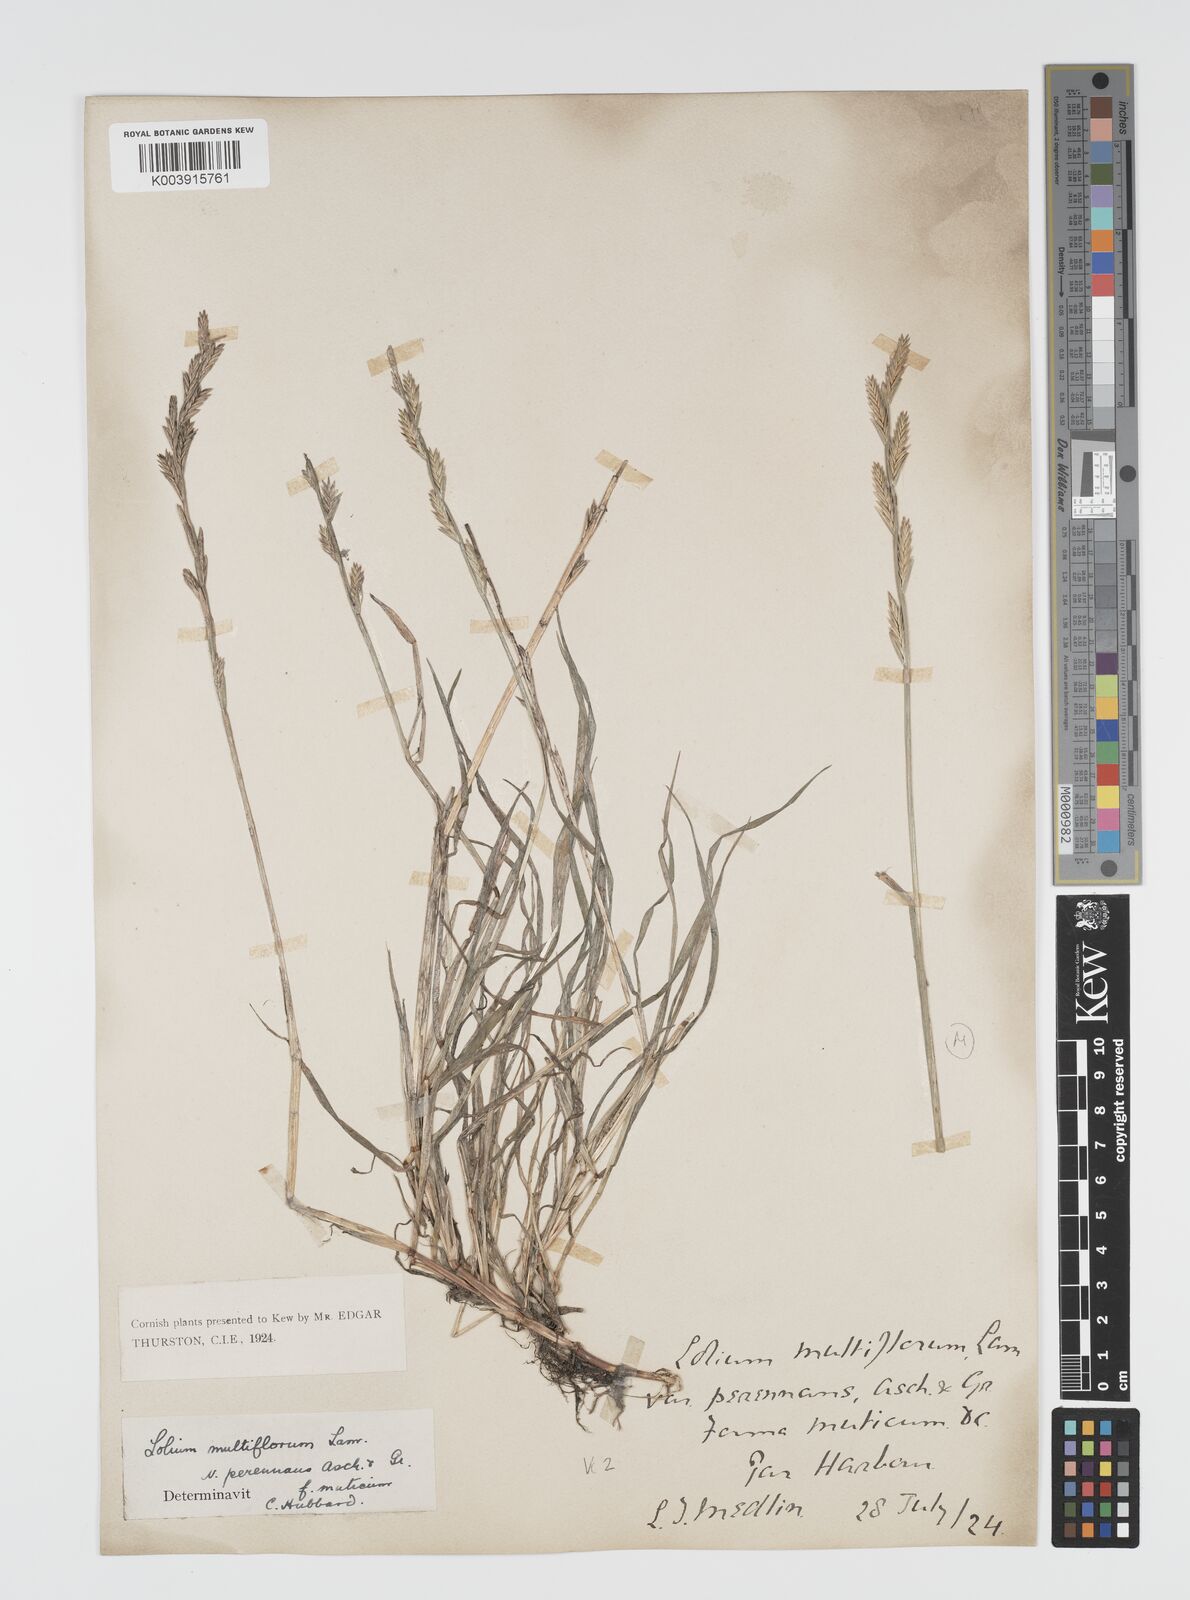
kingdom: Plantae
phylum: Tracheophyta
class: Liliopsida
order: Poales
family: Poaceae
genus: Lolium
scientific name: Lolium multiflorum
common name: Annual ryegrass
